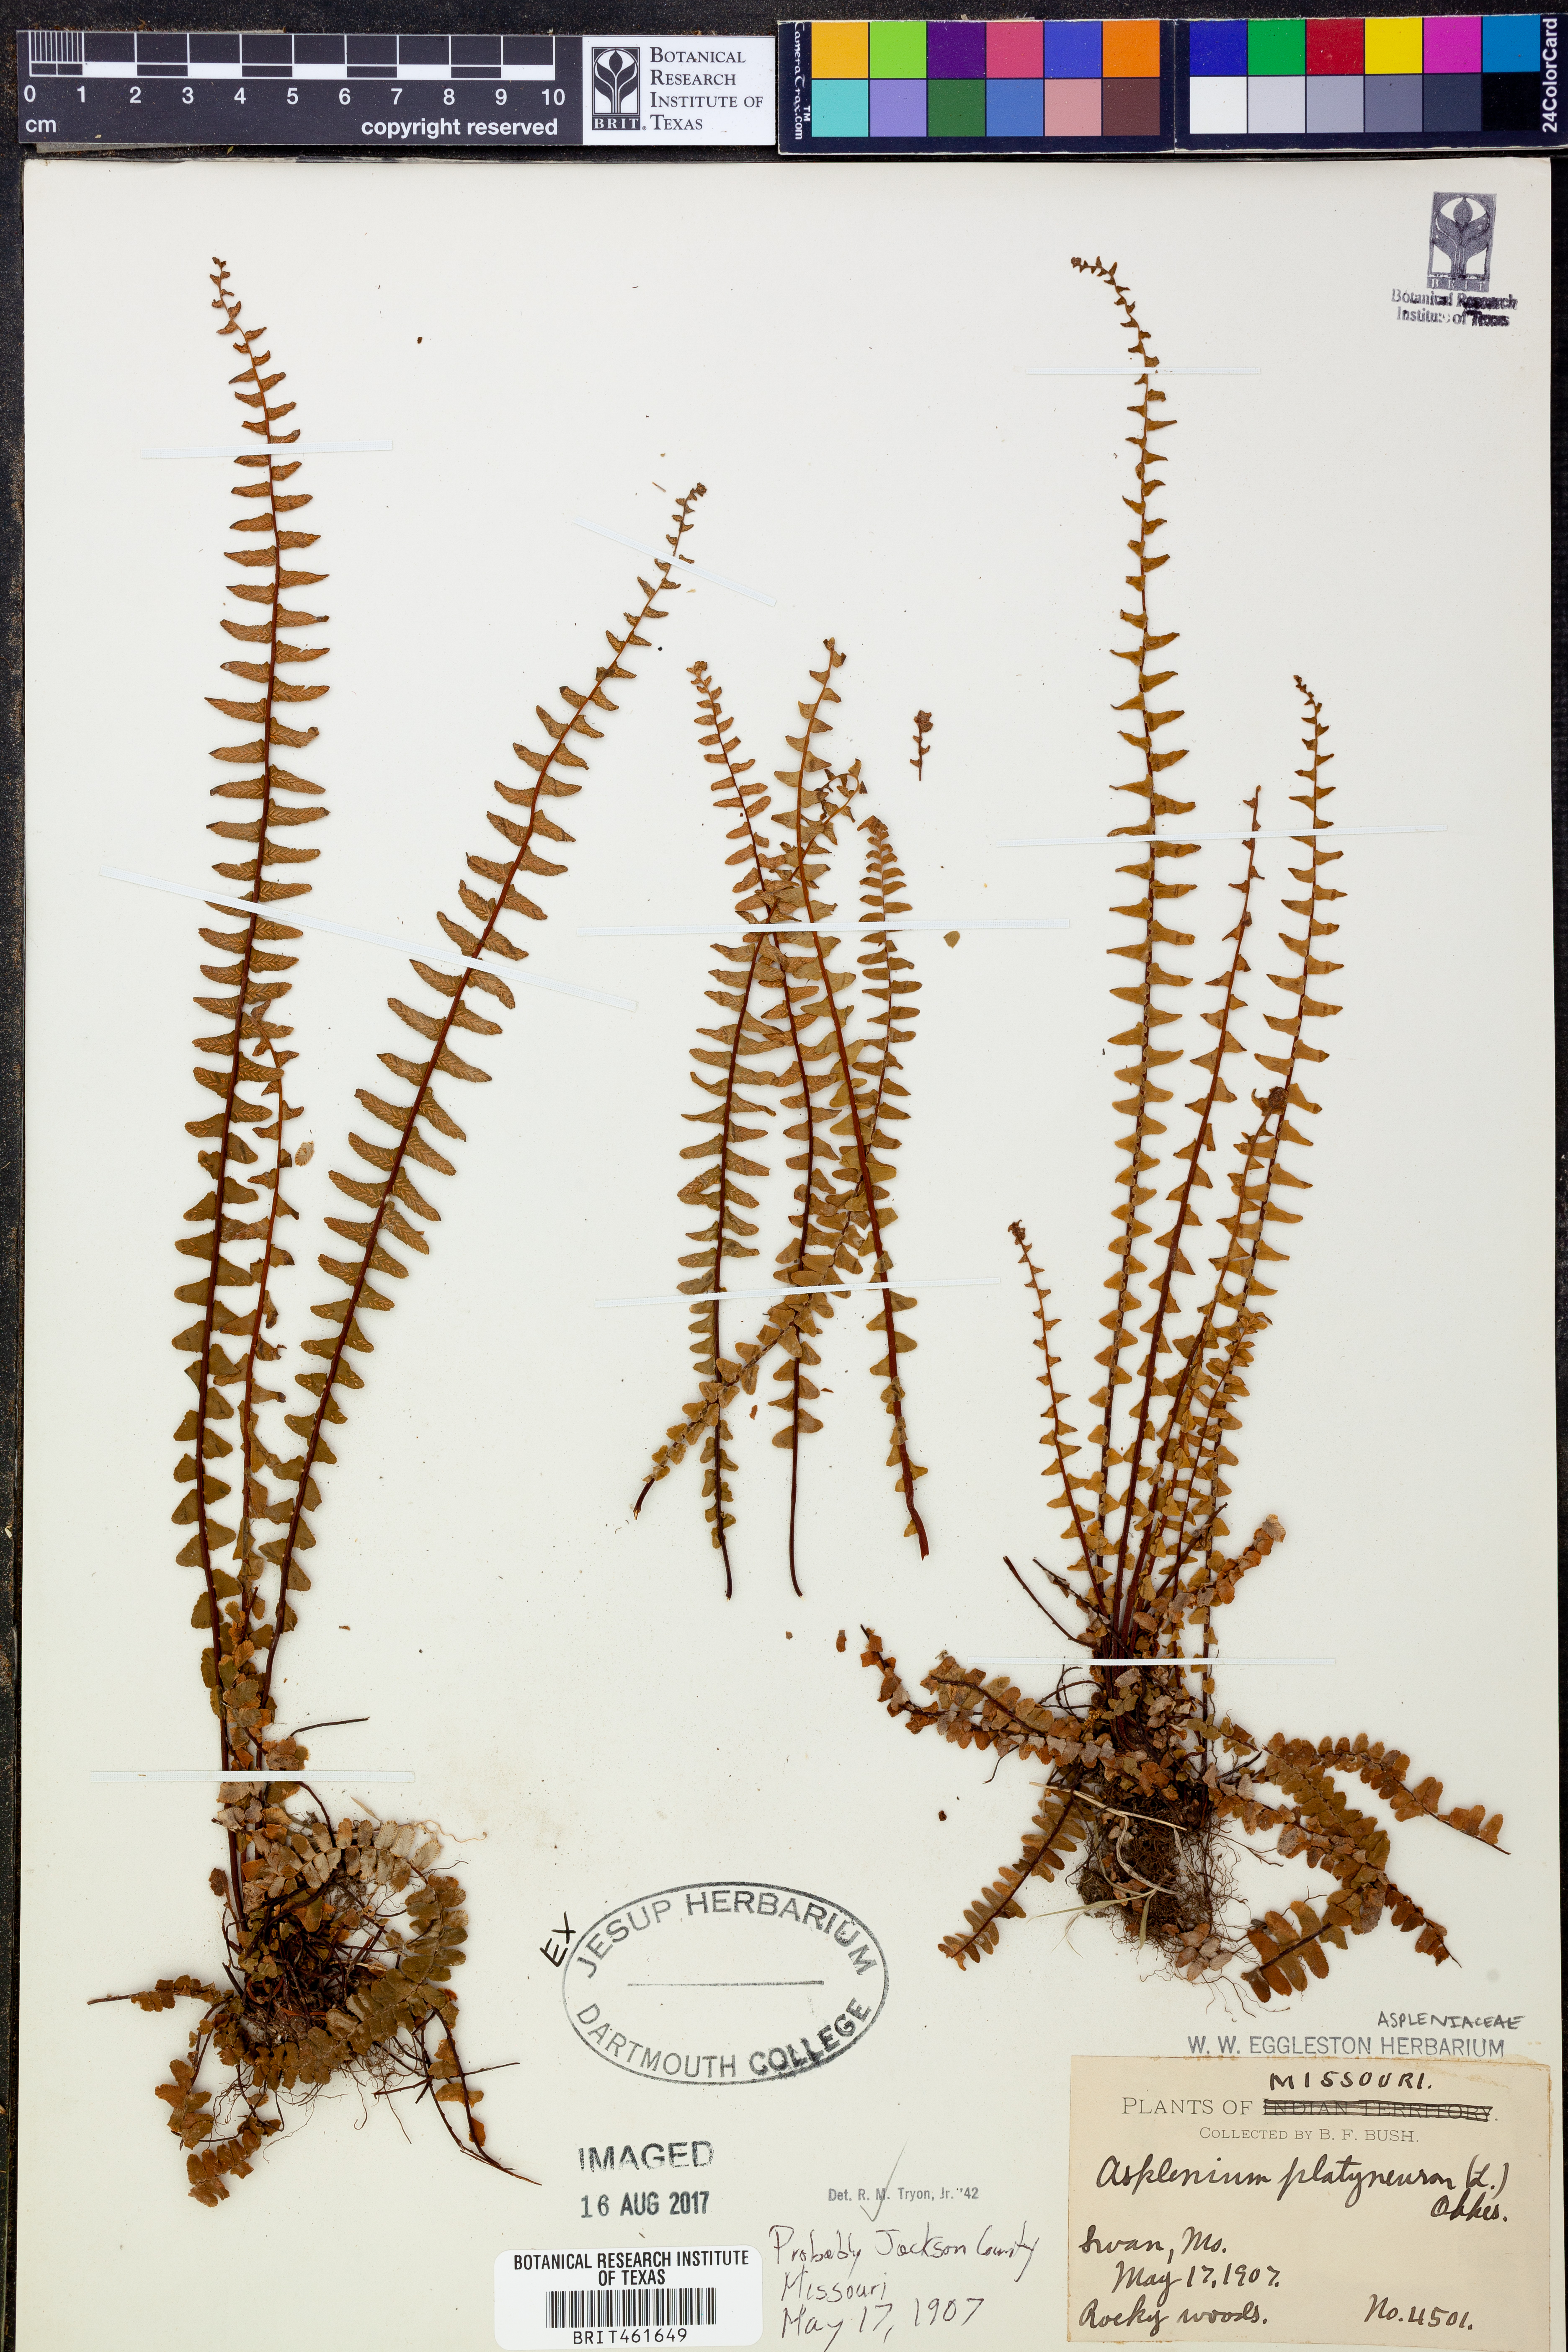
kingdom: Plantae
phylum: Tracheophyta
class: Polypodiopsida
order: Polypodiales
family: Aspleniaceae
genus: Asplenium
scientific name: Asplenium platyneuron
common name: Ebony spleenwort
